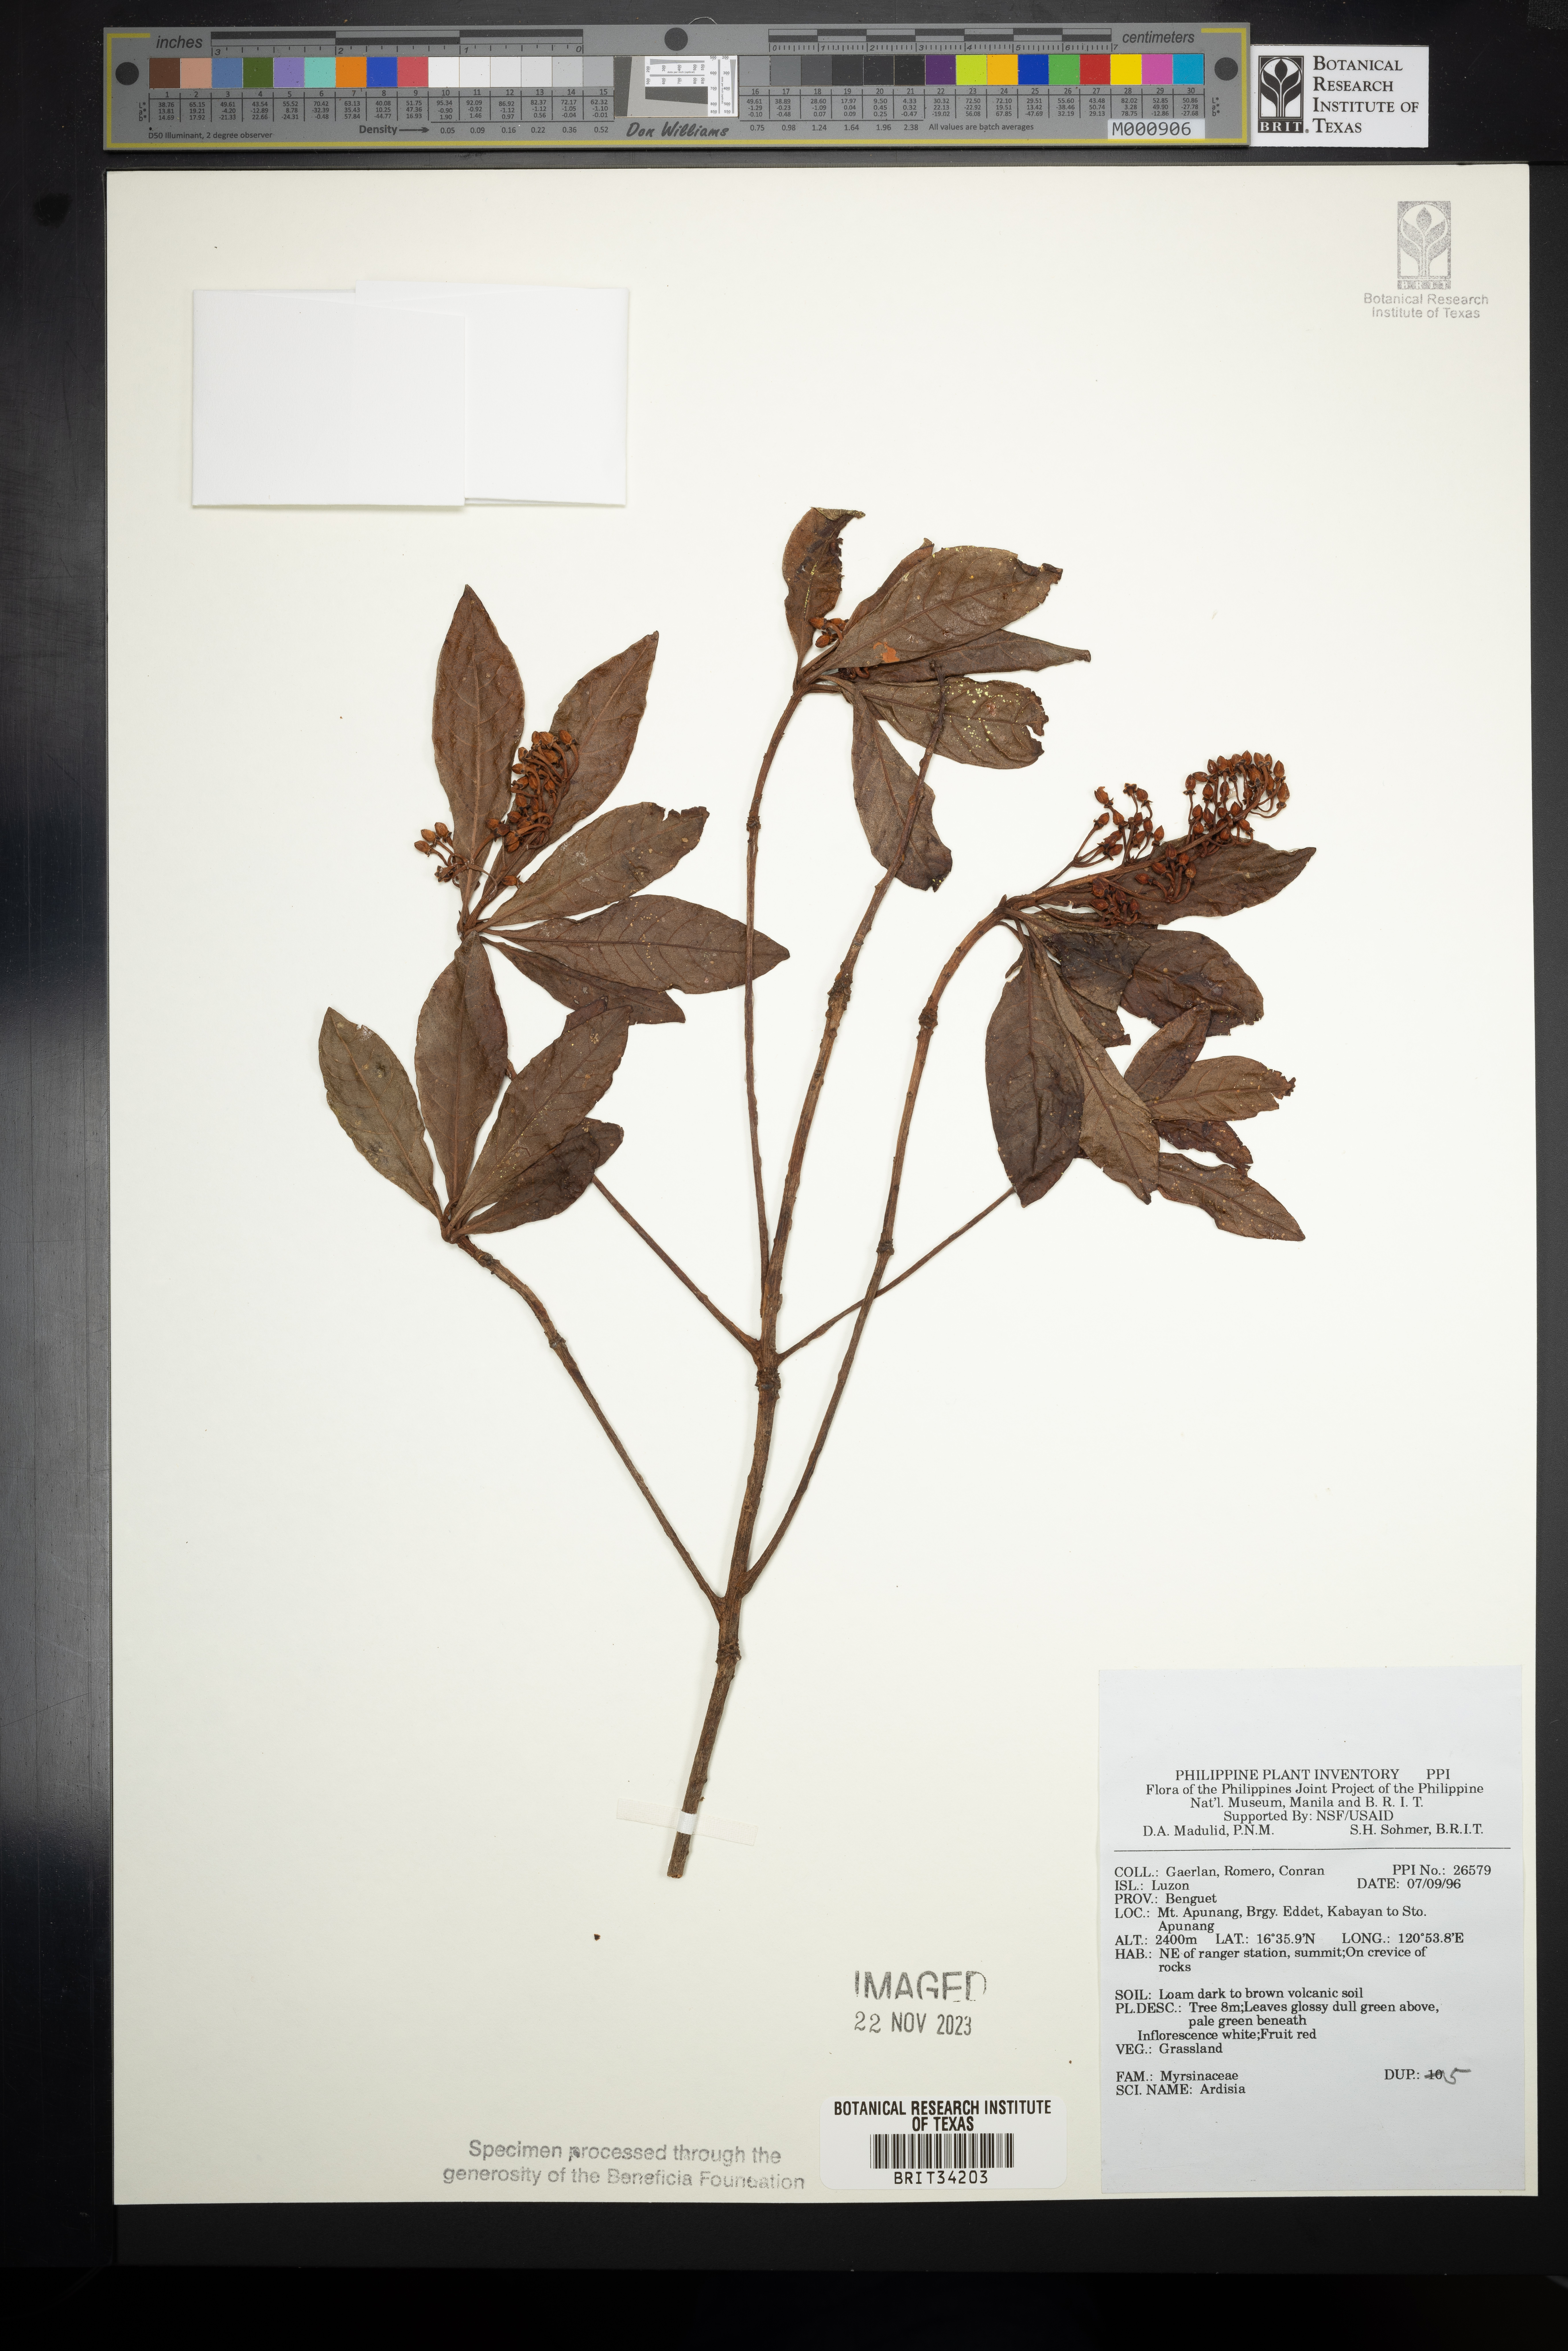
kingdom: Plantae
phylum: Tracheophyta
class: Magnoliopsida
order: Ericales
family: Primulaceae
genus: Ardisia
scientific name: Ardisia
